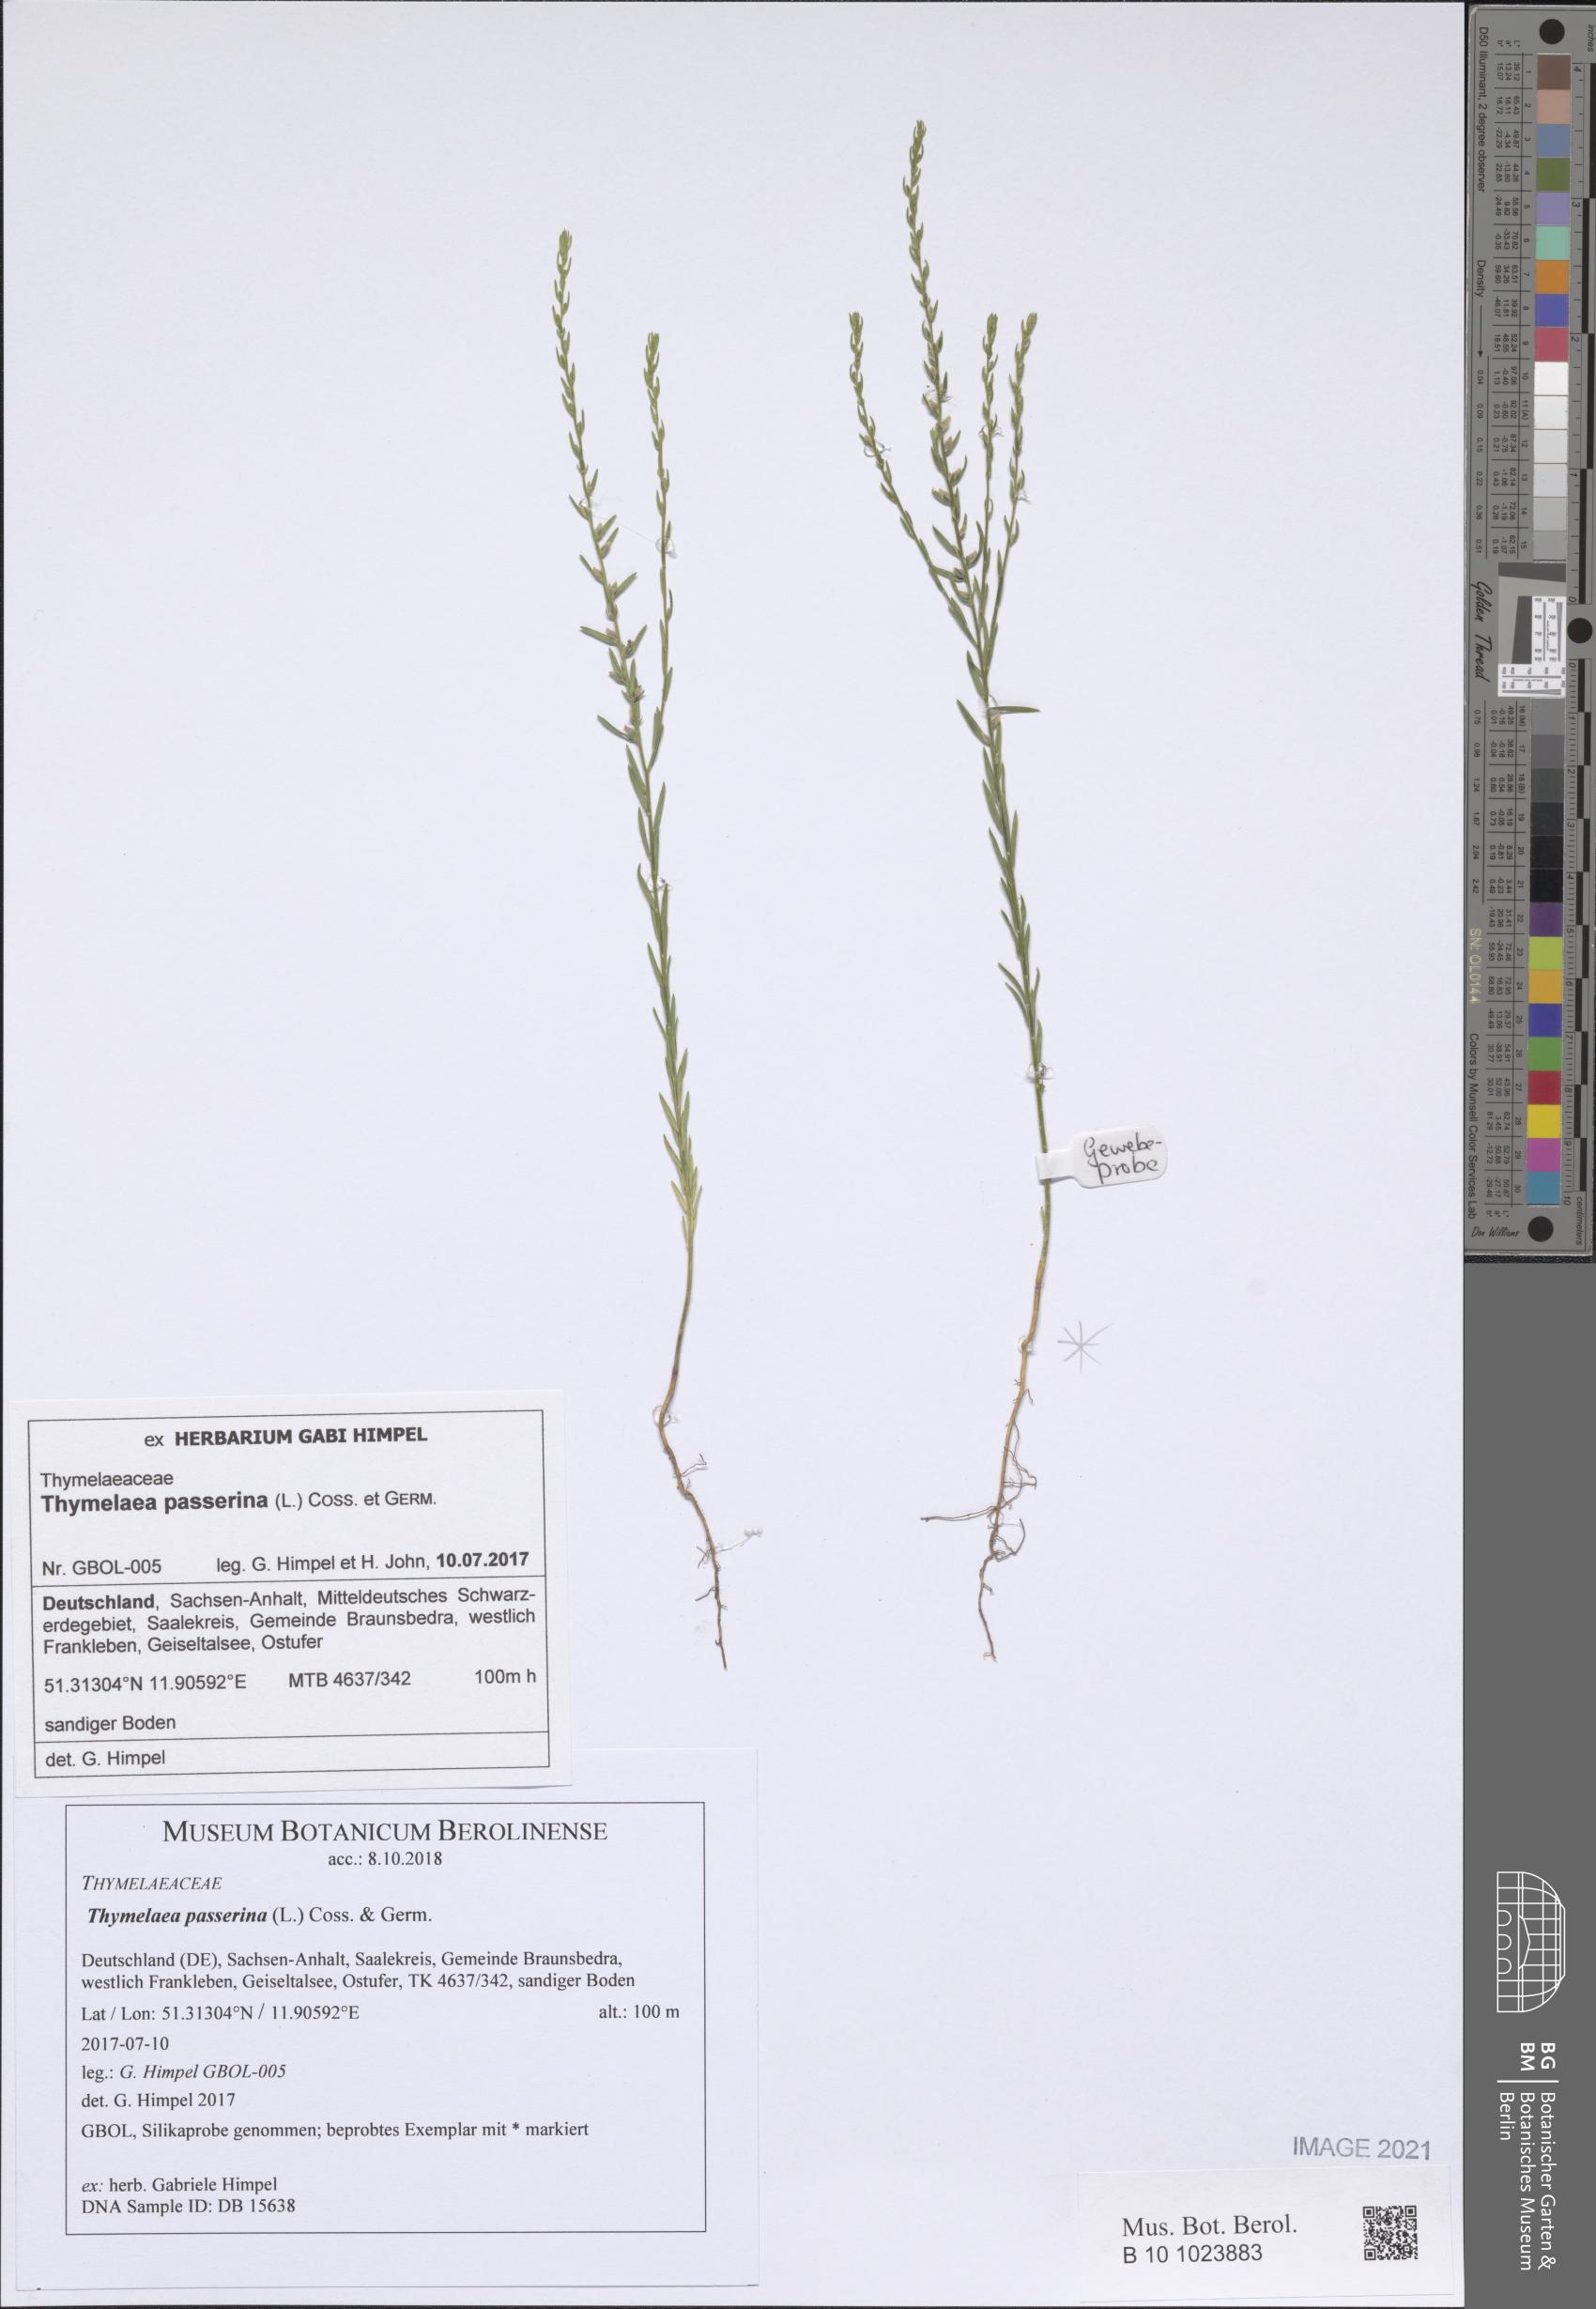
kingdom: Plantae
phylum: Tracheophyta
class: Magnoliopsida
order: Malvales
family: Thymelaeaceae
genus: Thymelaea
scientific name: Thymelaea passerina
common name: Annual thymelaea
